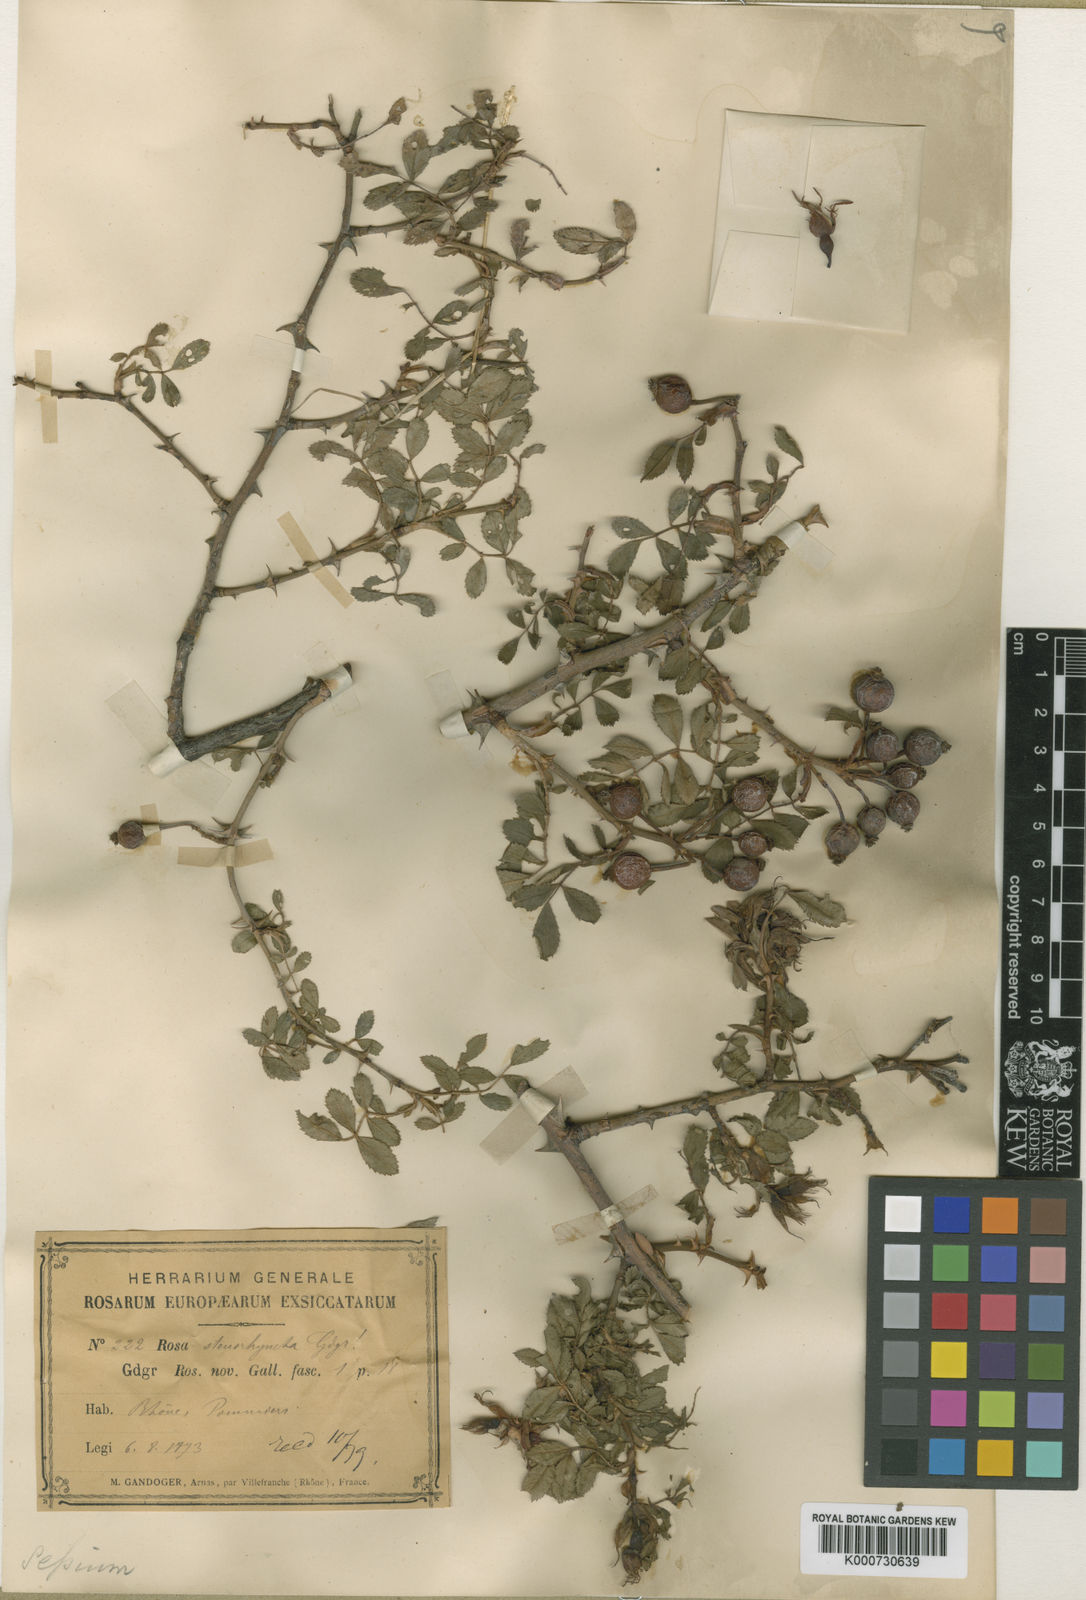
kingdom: Plantae
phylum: Tracheophyta
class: Magnoliopsida
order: Rosales
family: Rosaceae
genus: Rosa
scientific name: Rosa agrestis
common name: Fieldbriar
